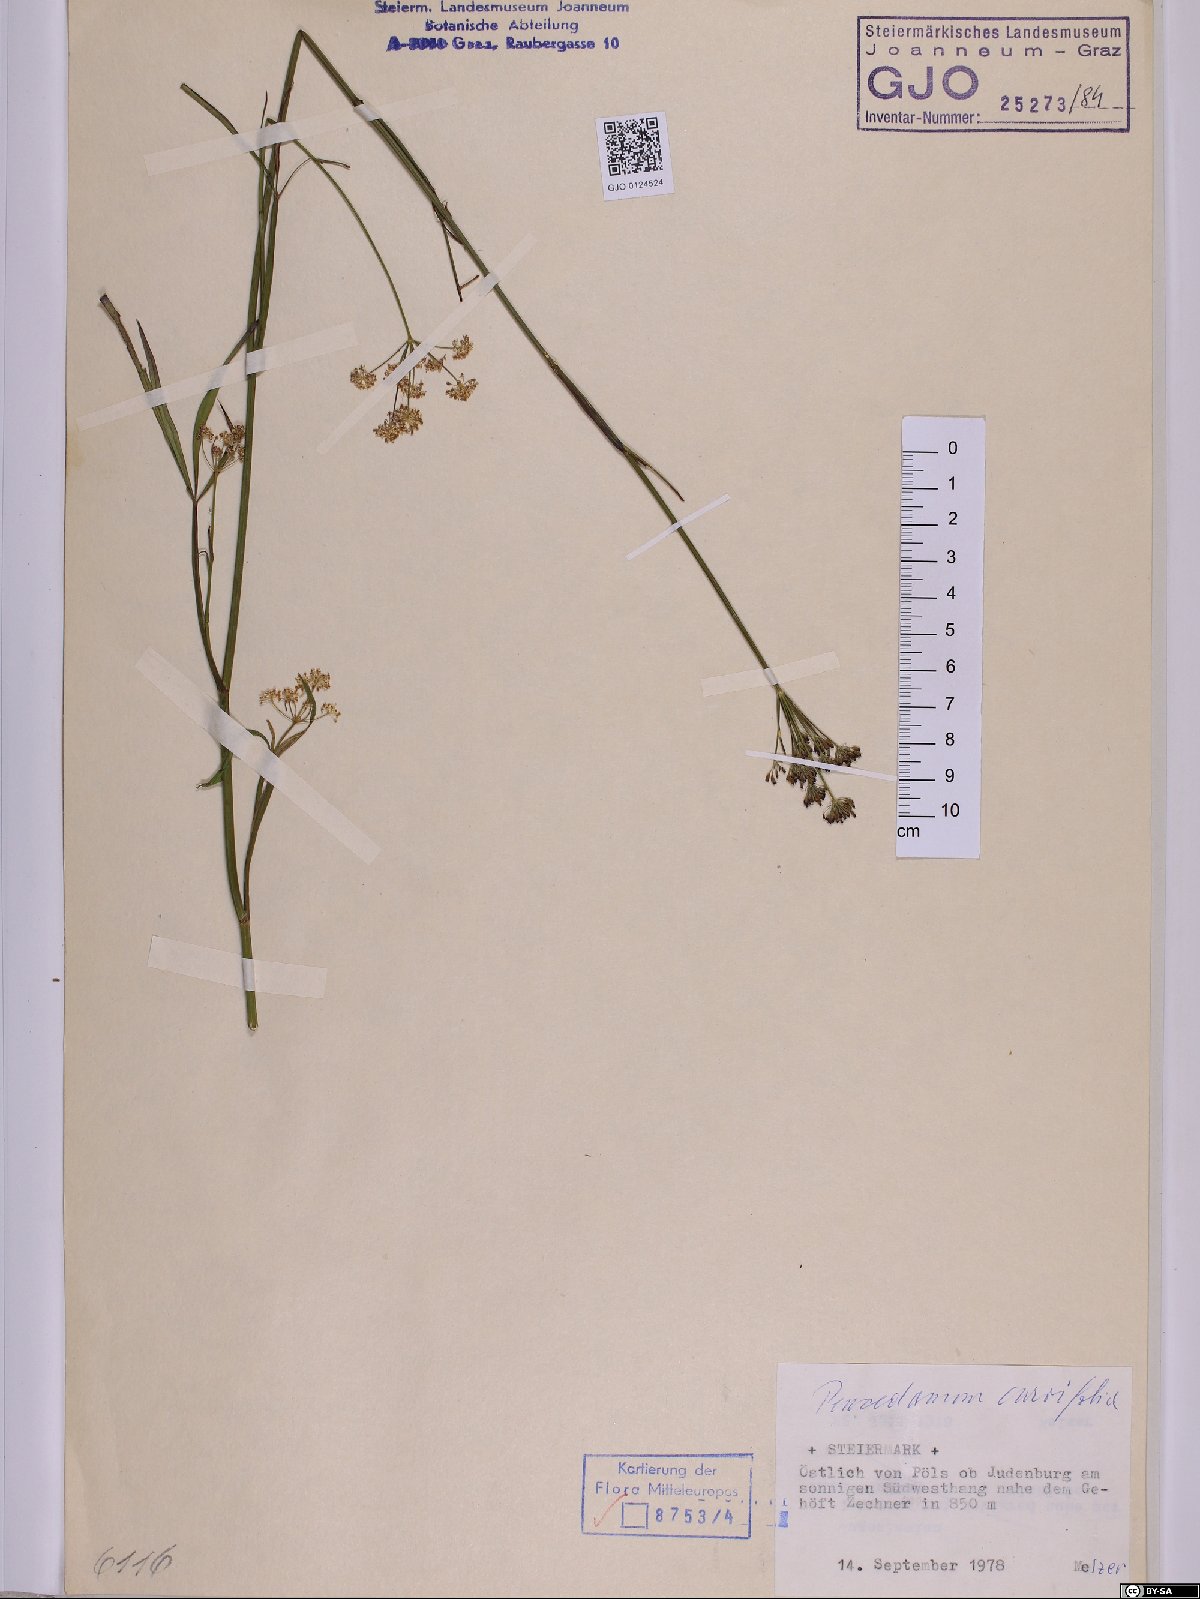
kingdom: Plantae
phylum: Tracheophyta
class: Magnoliopsida
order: Apiales
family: Apiaceae
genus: Dichoropetalum
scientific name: Dichoropetalum carvifolia
